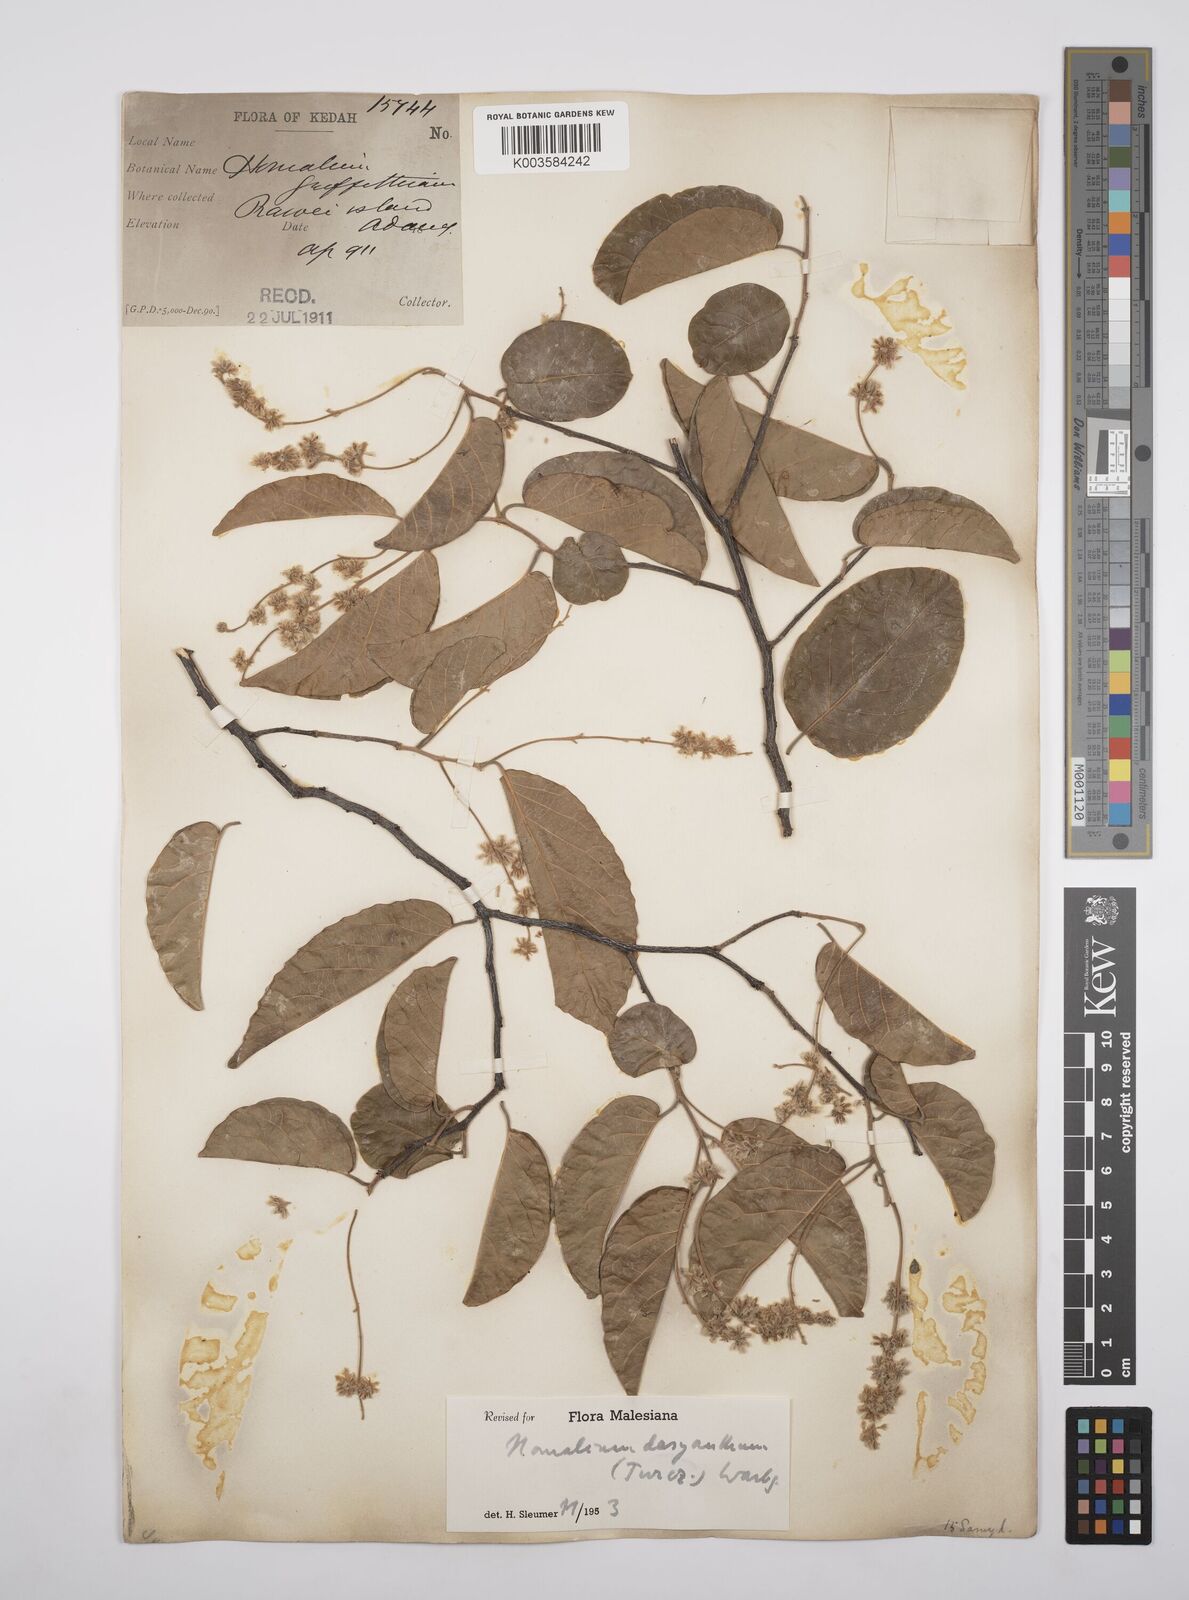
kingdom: Plantae
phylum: Tracheophyta
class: Magnoliopsida
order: Malpighiales
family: Salicaceae
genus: Homalium
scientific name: Homalium dasyanthum
